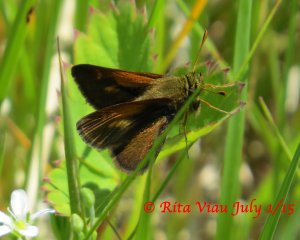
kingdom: Animalia
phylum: Arthropoda
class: Insecta
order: Lepidoptera
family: Hesperiidae
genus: Polites
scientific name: Polites themistocles
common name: Tawny-edged Skipper
